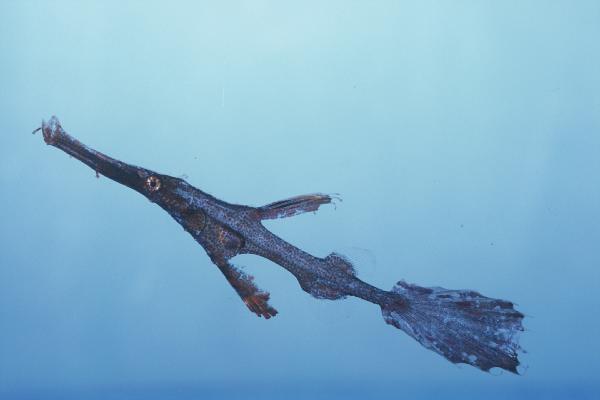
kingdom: Animalia
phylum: Chordata
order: Syngnathiformes
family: Solenostomidae
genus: Solenostomus
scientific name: Solenostomus paradoxus
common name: Ghost pipefish
